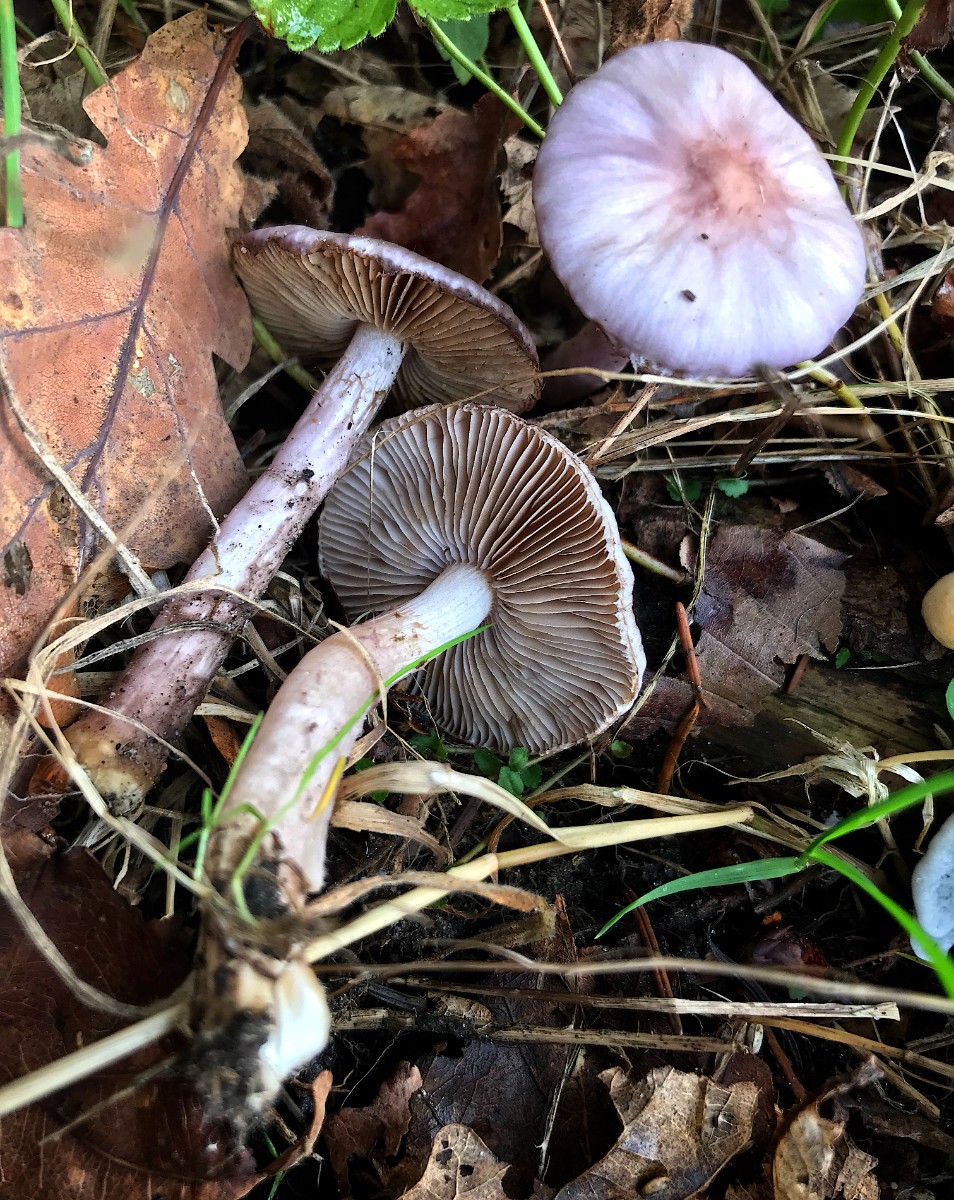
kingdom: Fungi
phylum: Basidiomycota
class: Agaricomycetes
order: Agaricales
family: Inocybaceae
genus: Inocybe
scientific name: Inocybe geophylla
